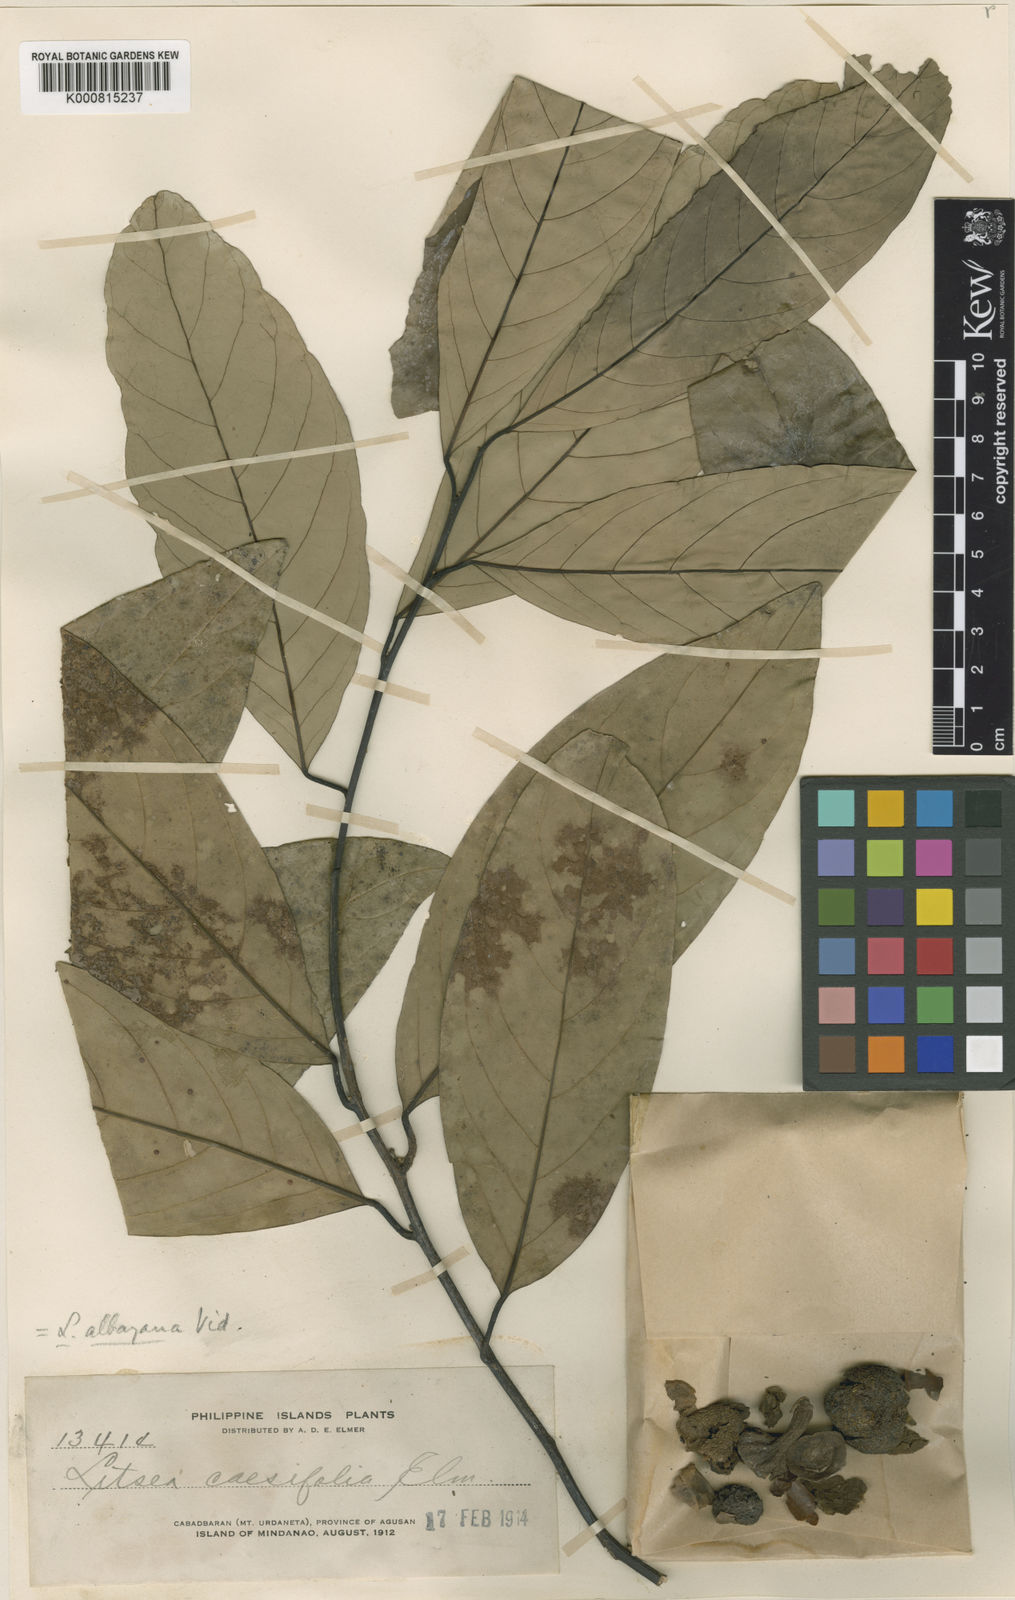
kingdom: Plantae
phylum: Tracheophyta
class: Magnoliopsida
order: Laurales
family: Lauraceae
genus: Litsea
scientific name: Litsea albayana
